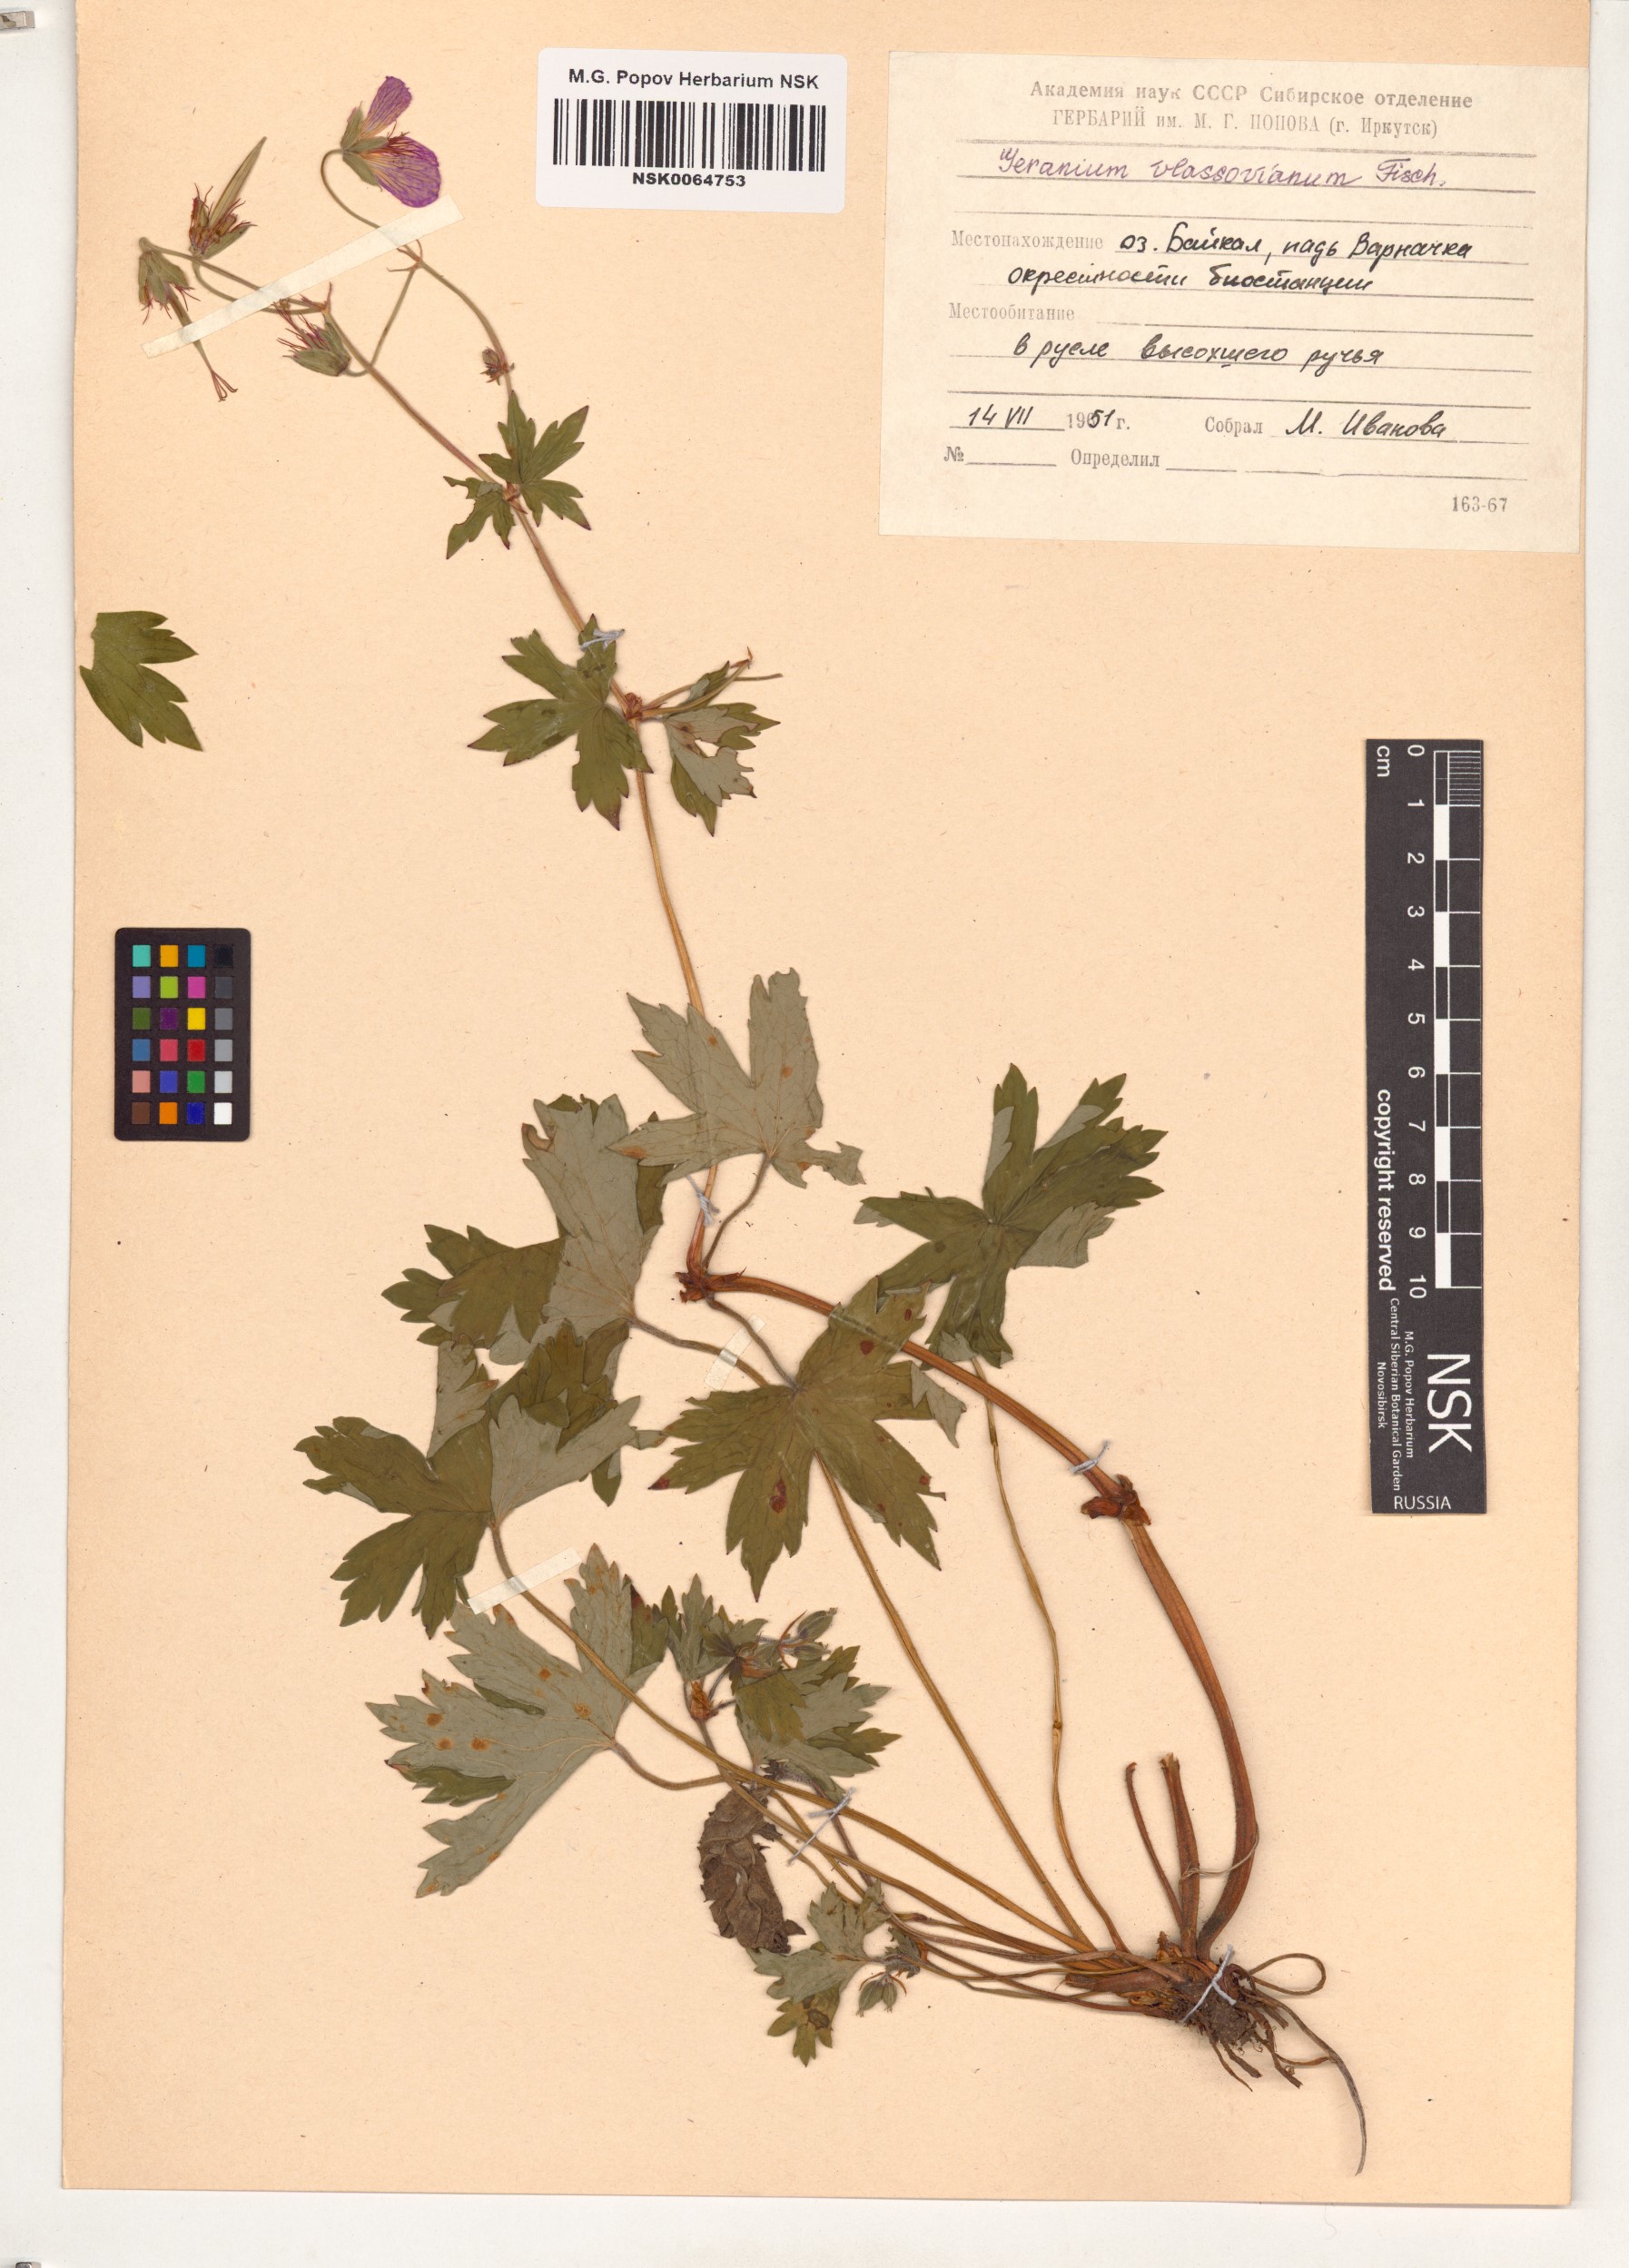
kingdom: Plantae
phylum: Tracheophyta
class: Magnoliopsida
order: Geraniales
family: Geraniaceae
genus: Geranium
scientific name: Geranium wlassovianum
